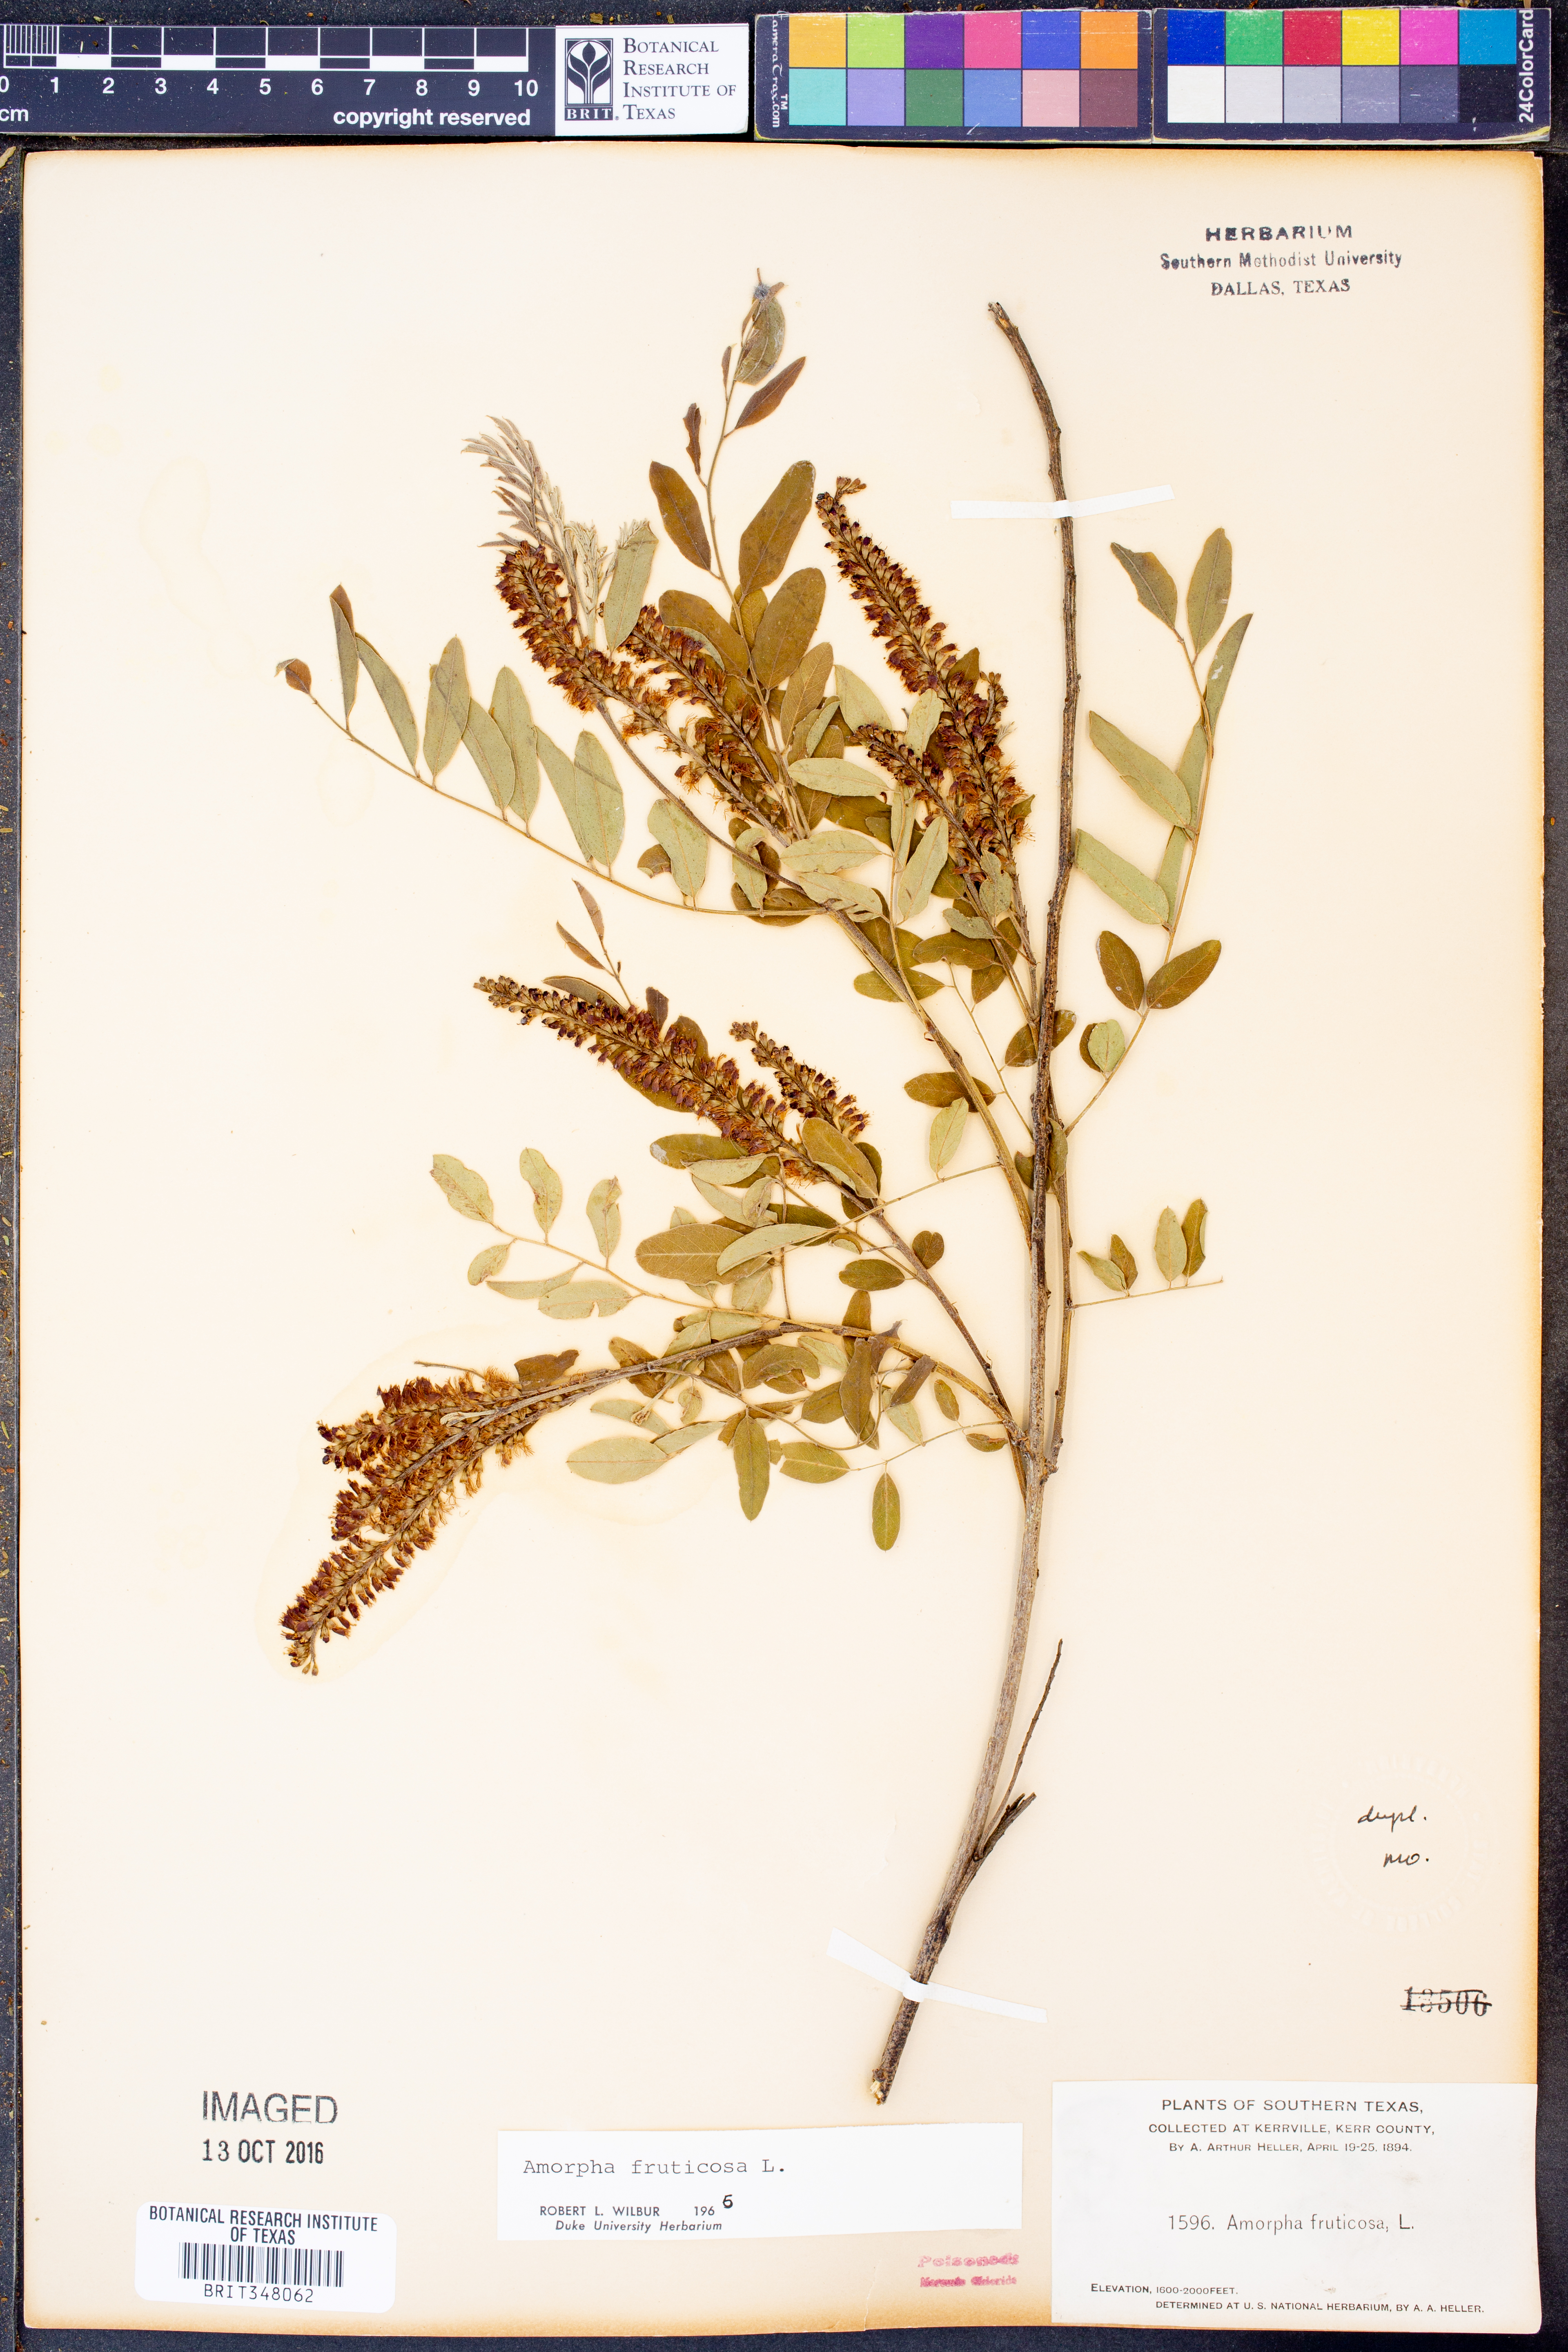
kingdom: Plantae
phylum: Tracheophyta
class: Magnoliopsida
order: Fabales
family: Fabaceae
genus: Amorpha
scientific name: Amorpha fruticosa
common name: False indigo
